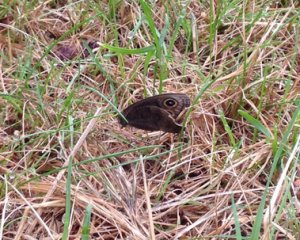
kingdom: Animalia
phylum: Arthropoda
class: Insecta
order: Lepidoptera
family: Nymphalidae
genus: Cercyonis
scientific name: Cercyonis pegala
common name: Common Wood-Nymph
